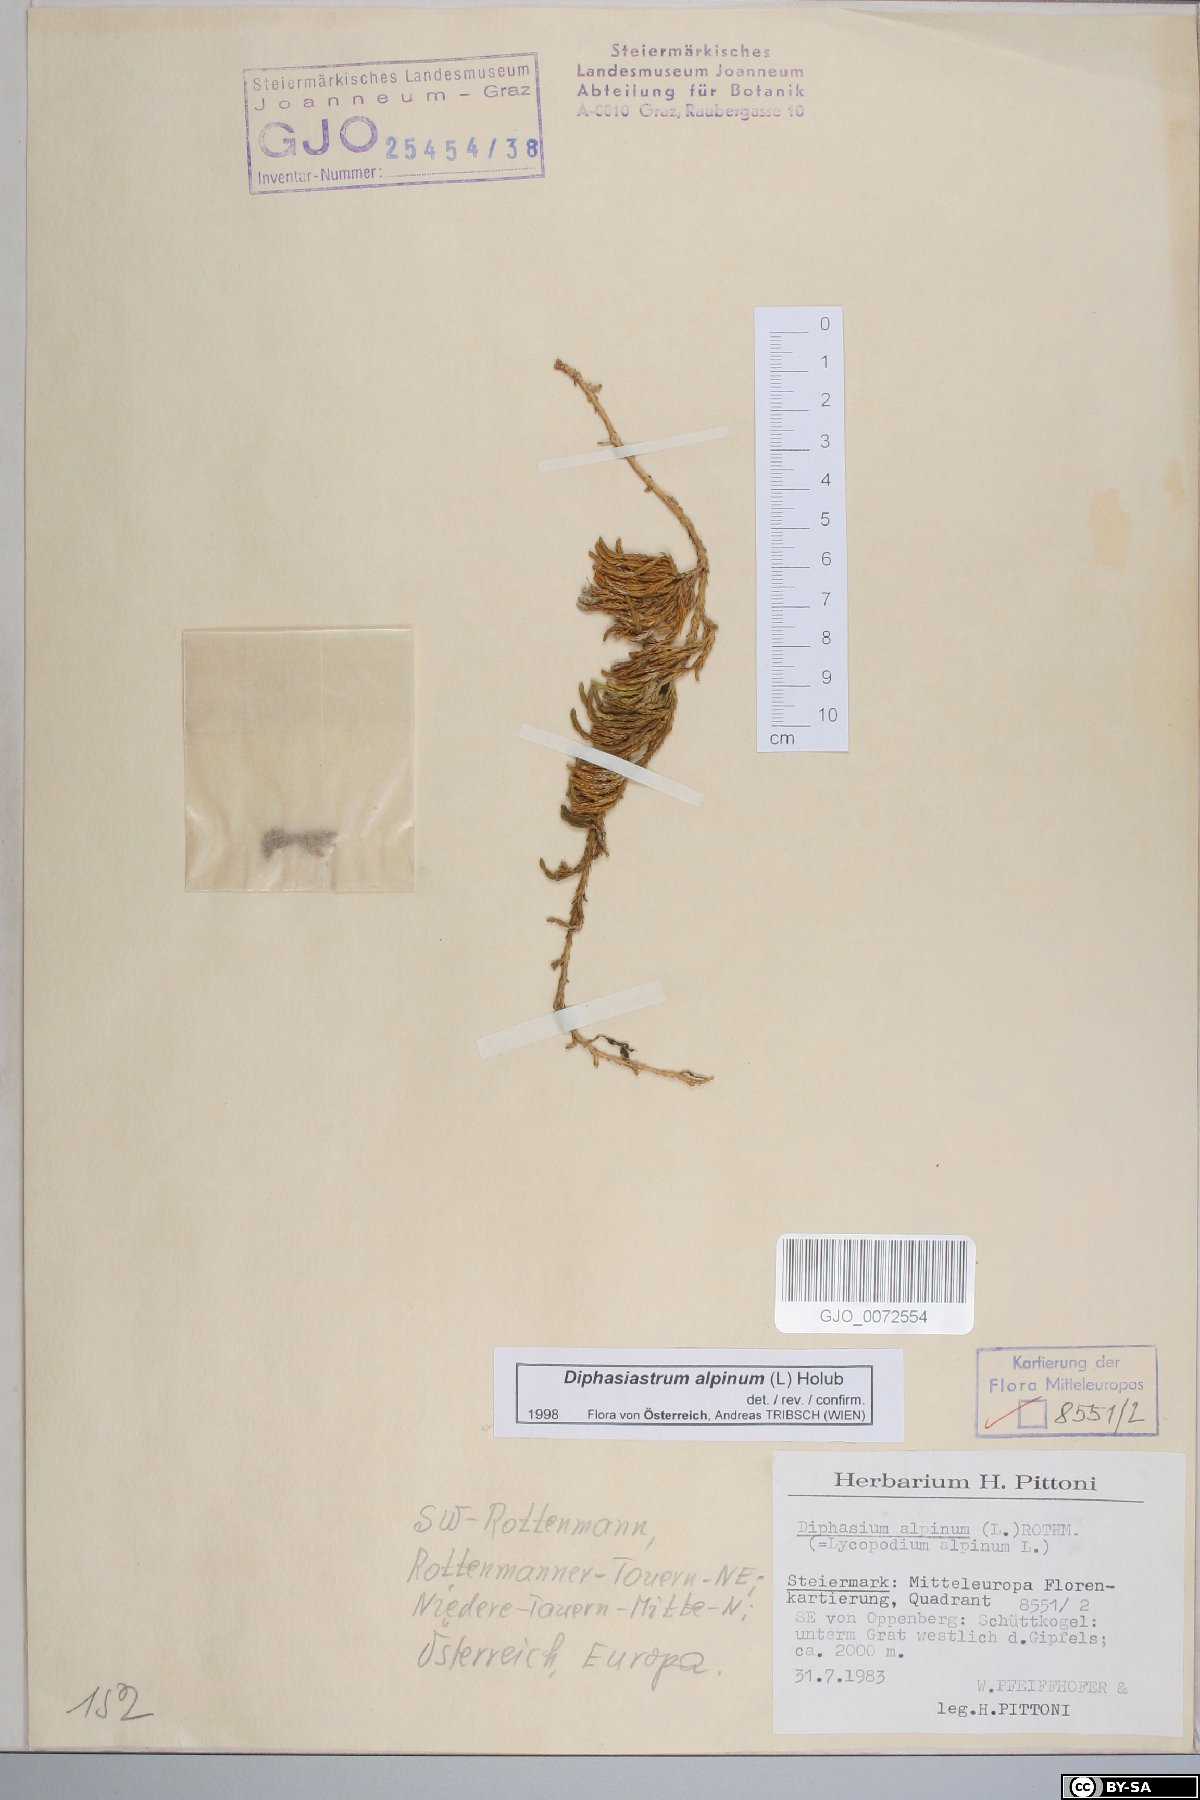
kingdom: Plantae
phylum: Tracheophyta
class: Lycopodiopsida
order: Lycopodiales
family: Lycopodiaceae
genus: Diphasiastrum
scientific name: Diphasiastrum alpinum
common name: Alpine clubmoss
